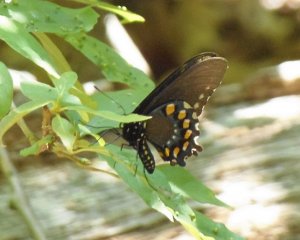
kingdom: Animalia
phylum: Arthropoda
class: Insecta
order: Lepidoptera
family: Papilionidae
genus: Battus
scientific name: Battus philenor
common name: Pipevine Swallowtail
